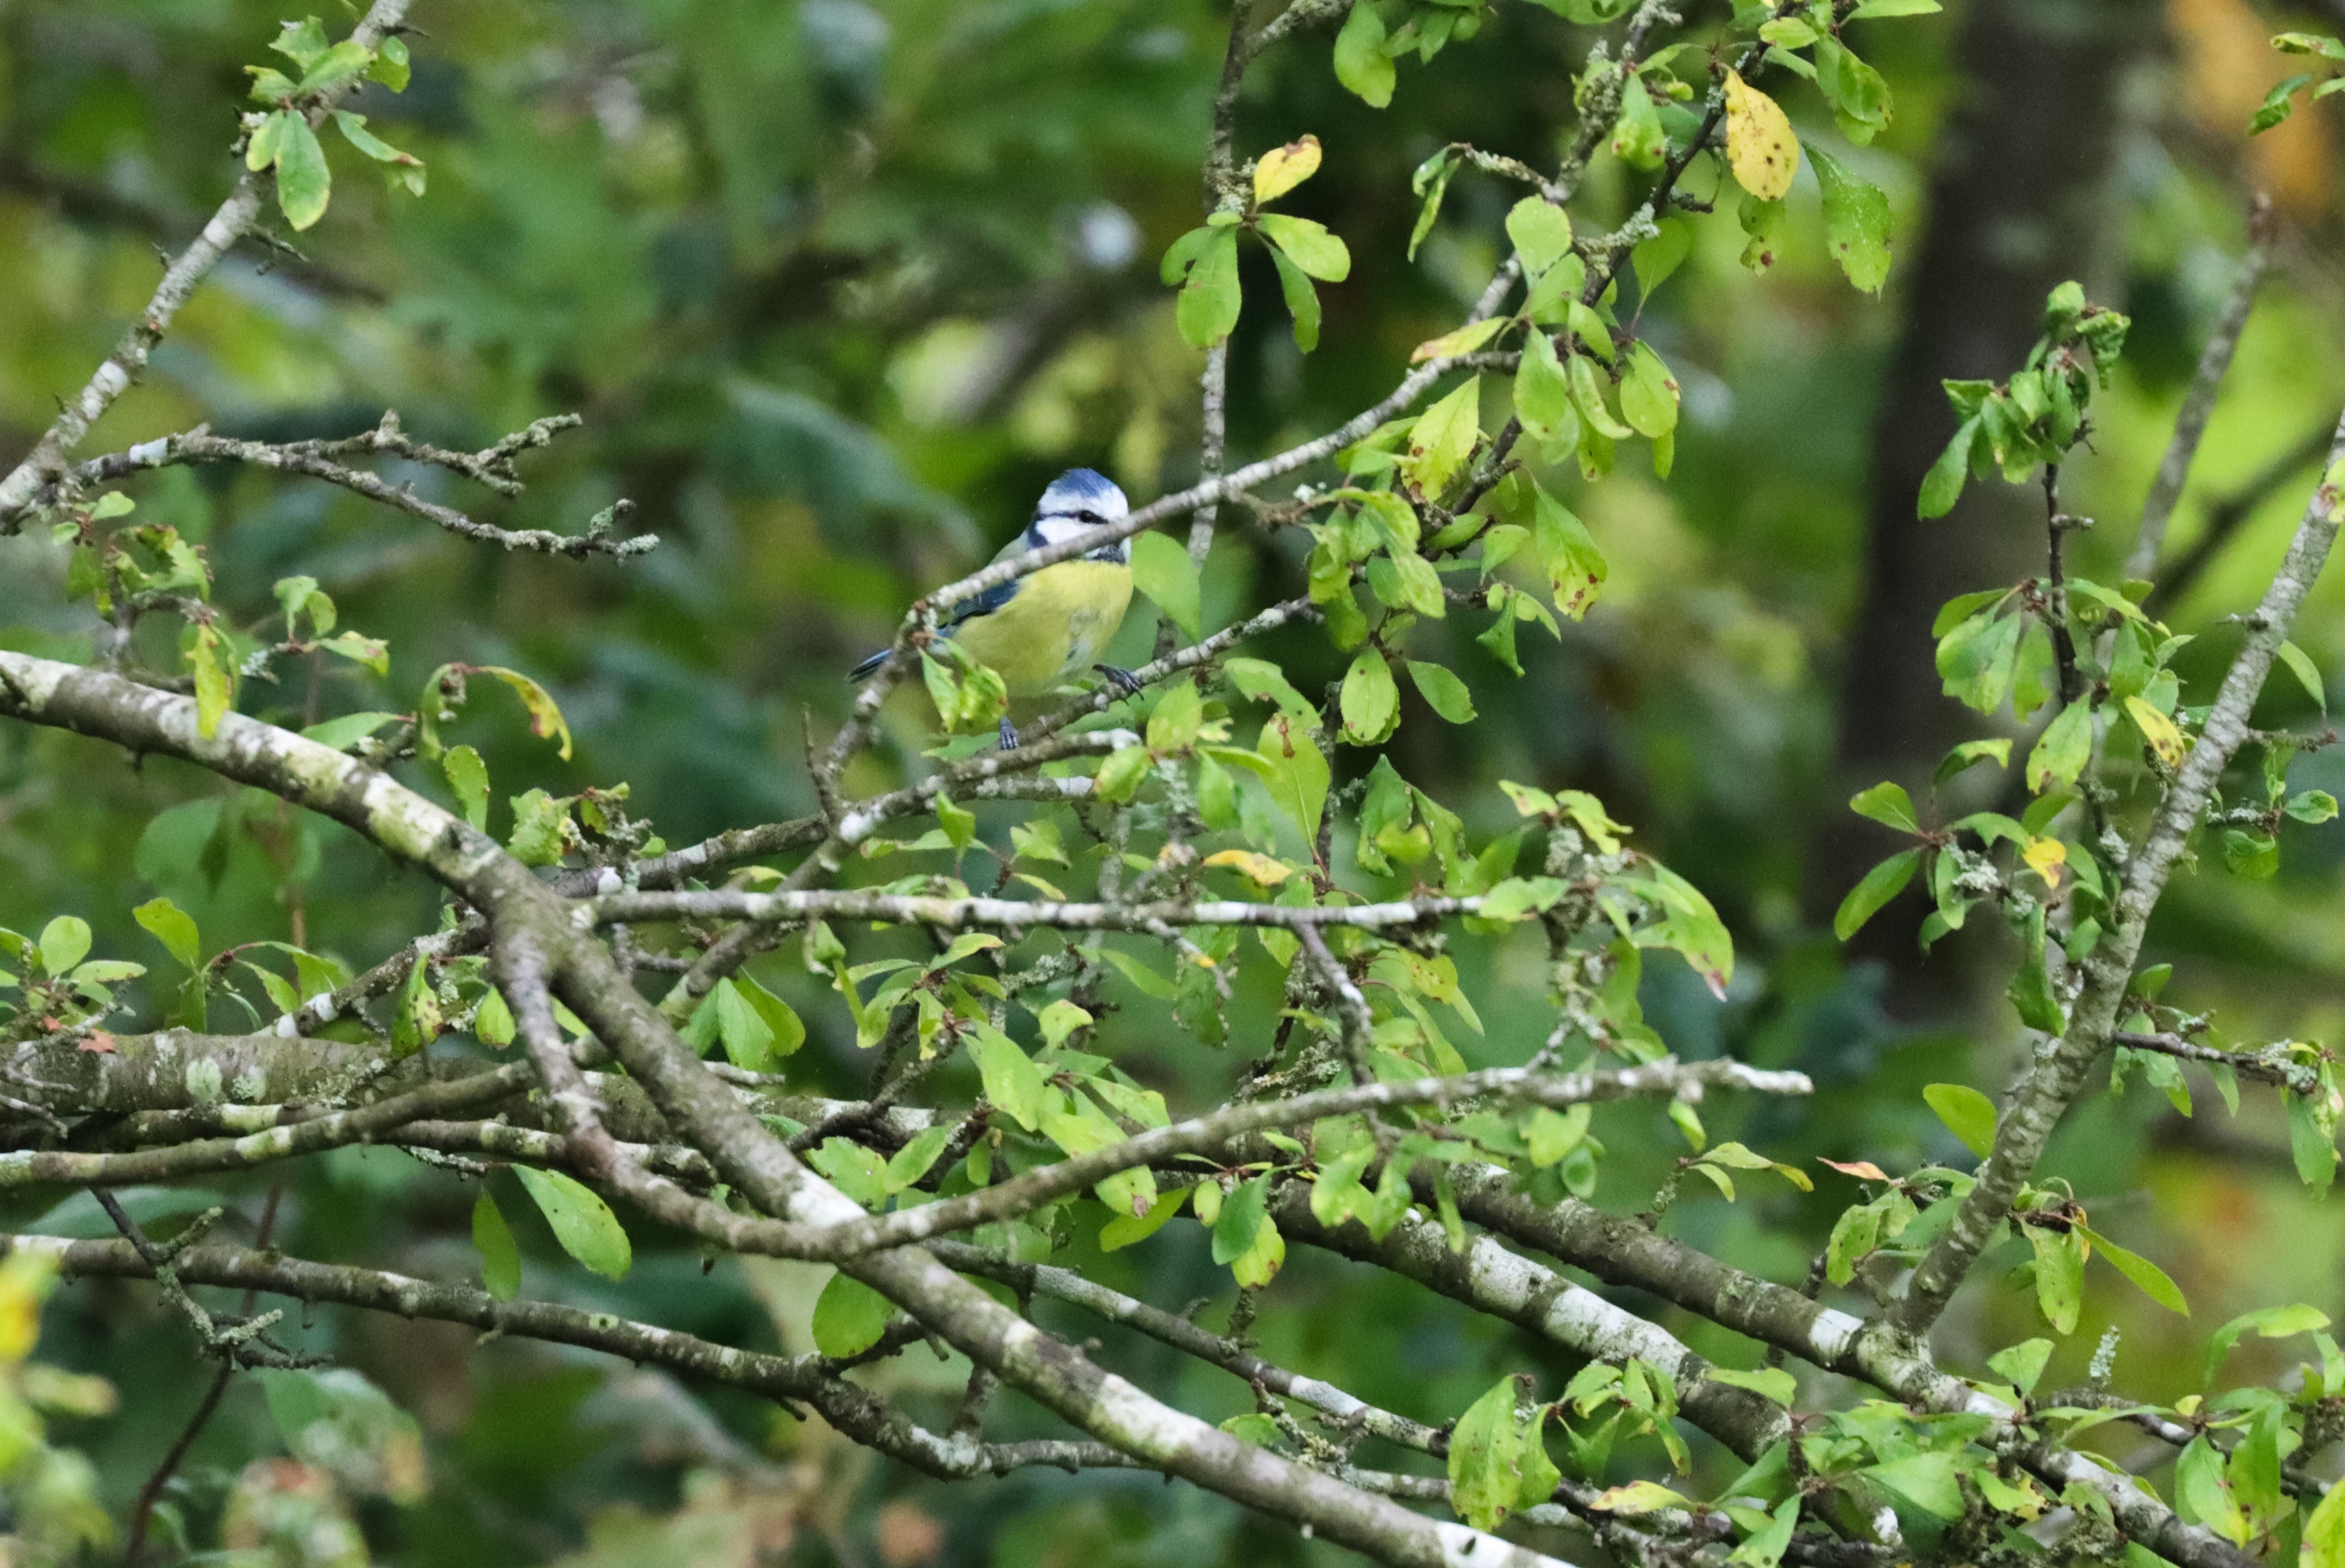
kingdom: Animalia
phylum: Chordata
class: Aves
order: Passeriformes
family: Paridae
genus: Cyanistes
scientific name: Cyanistes caeruleus
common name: Blåmejse
